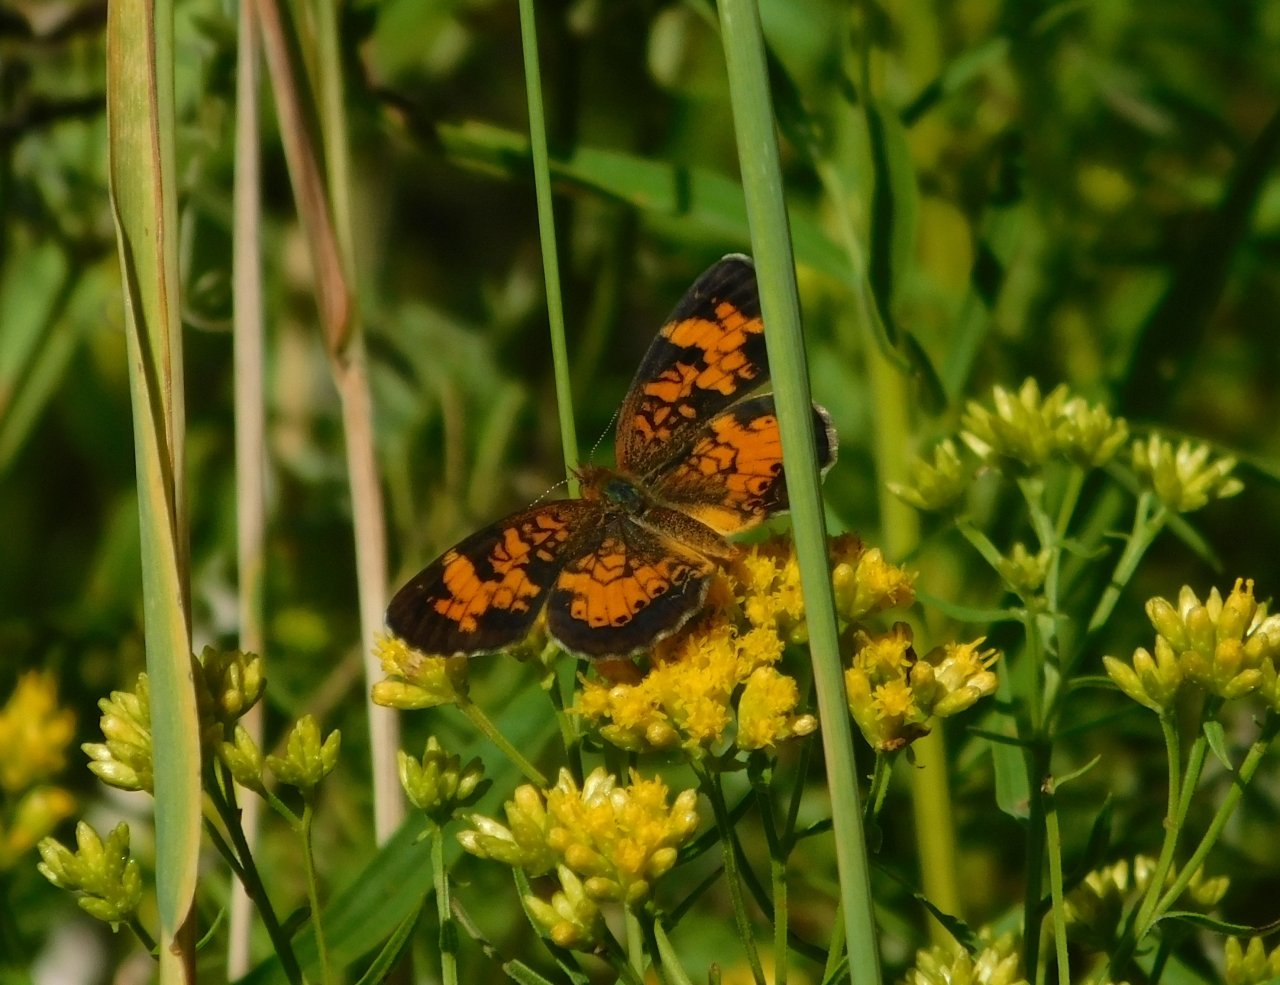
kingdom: Animalia
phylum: Arthropoda
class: Insecta
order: Lepidoptera
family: Nymphalidae
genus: Phyciodes
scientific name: Phyciodes tharos
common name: Northern Crescent
